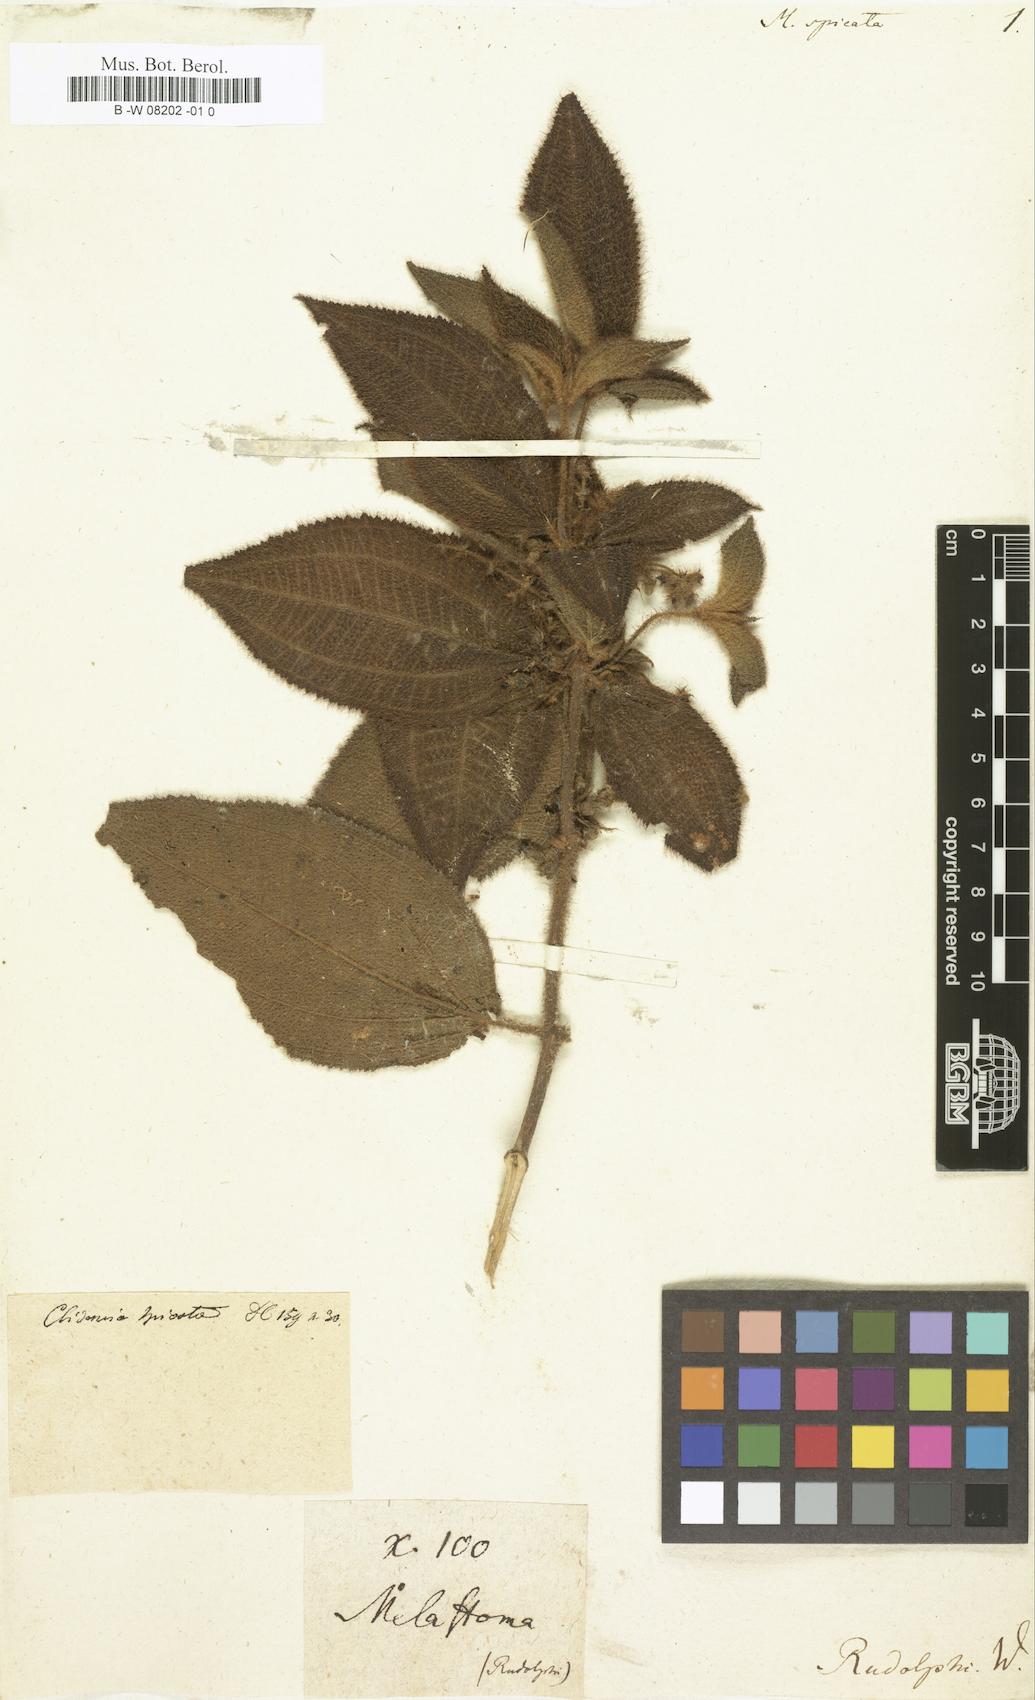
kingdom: Plantae
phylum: Tracheophyta
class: Magnoliopsida
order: Myrtales
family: Melastomataceae
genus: Miconia
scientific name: Miconia
